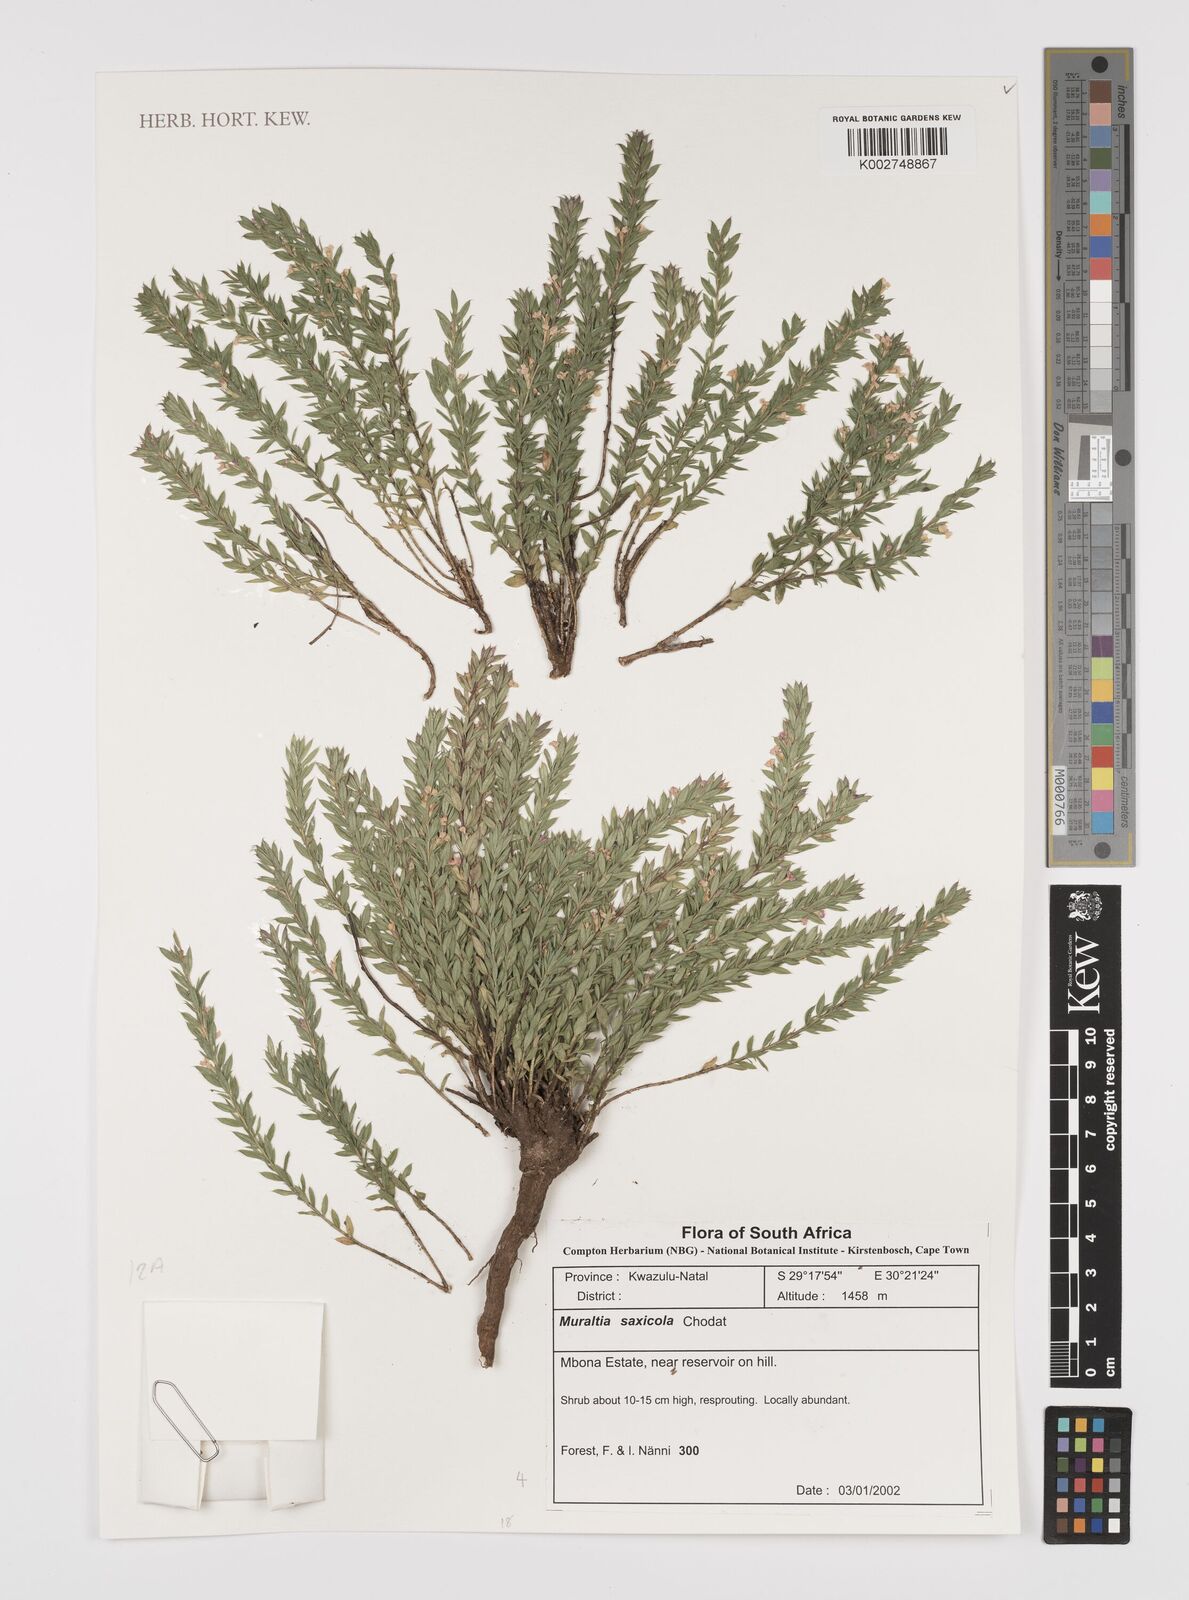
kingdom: Plantae
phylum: Tracheophyta
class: Magnoliopsida
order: Fabales
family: Polygalaceae
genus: Muraltia
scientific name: Muraltia saxicola
